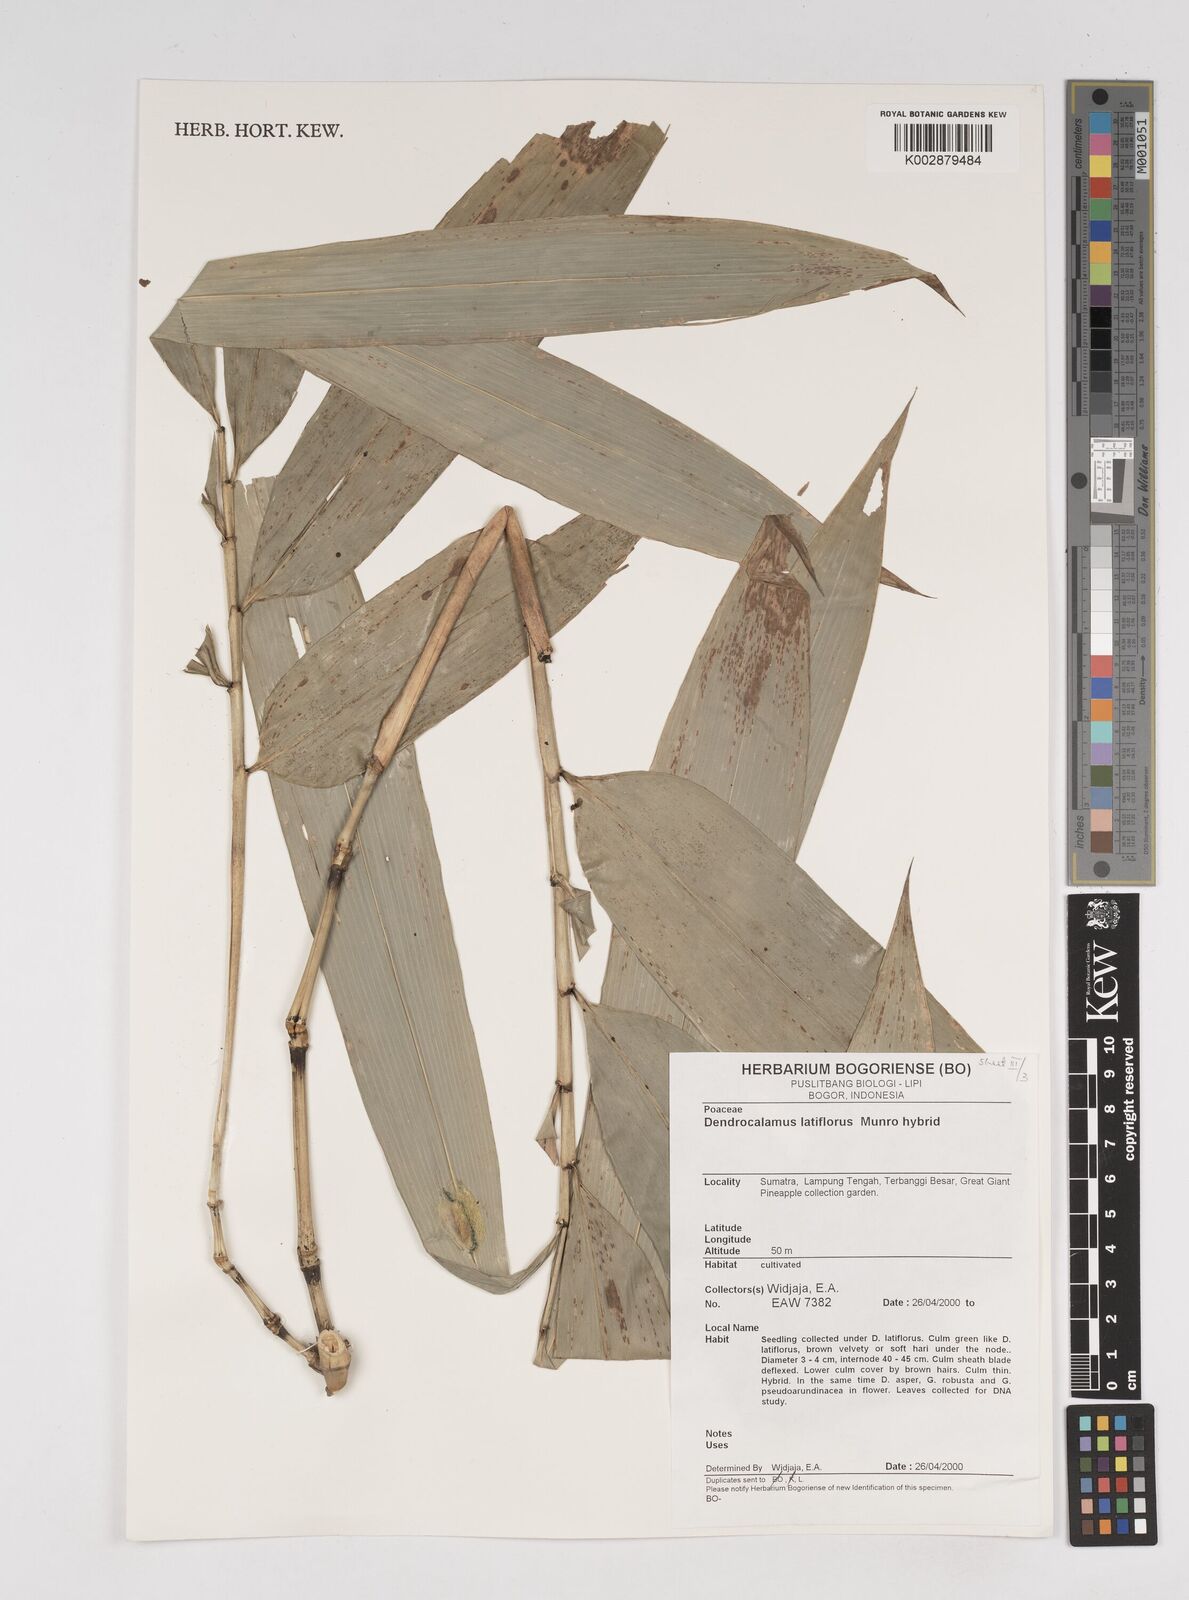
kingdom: Plantae
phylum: Tracheophyta
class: Liliopsida
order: Poales
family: Poaceae
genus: Dendrocalamus
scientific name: Dendrocalamus latiflorus
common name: Giant bamboo
